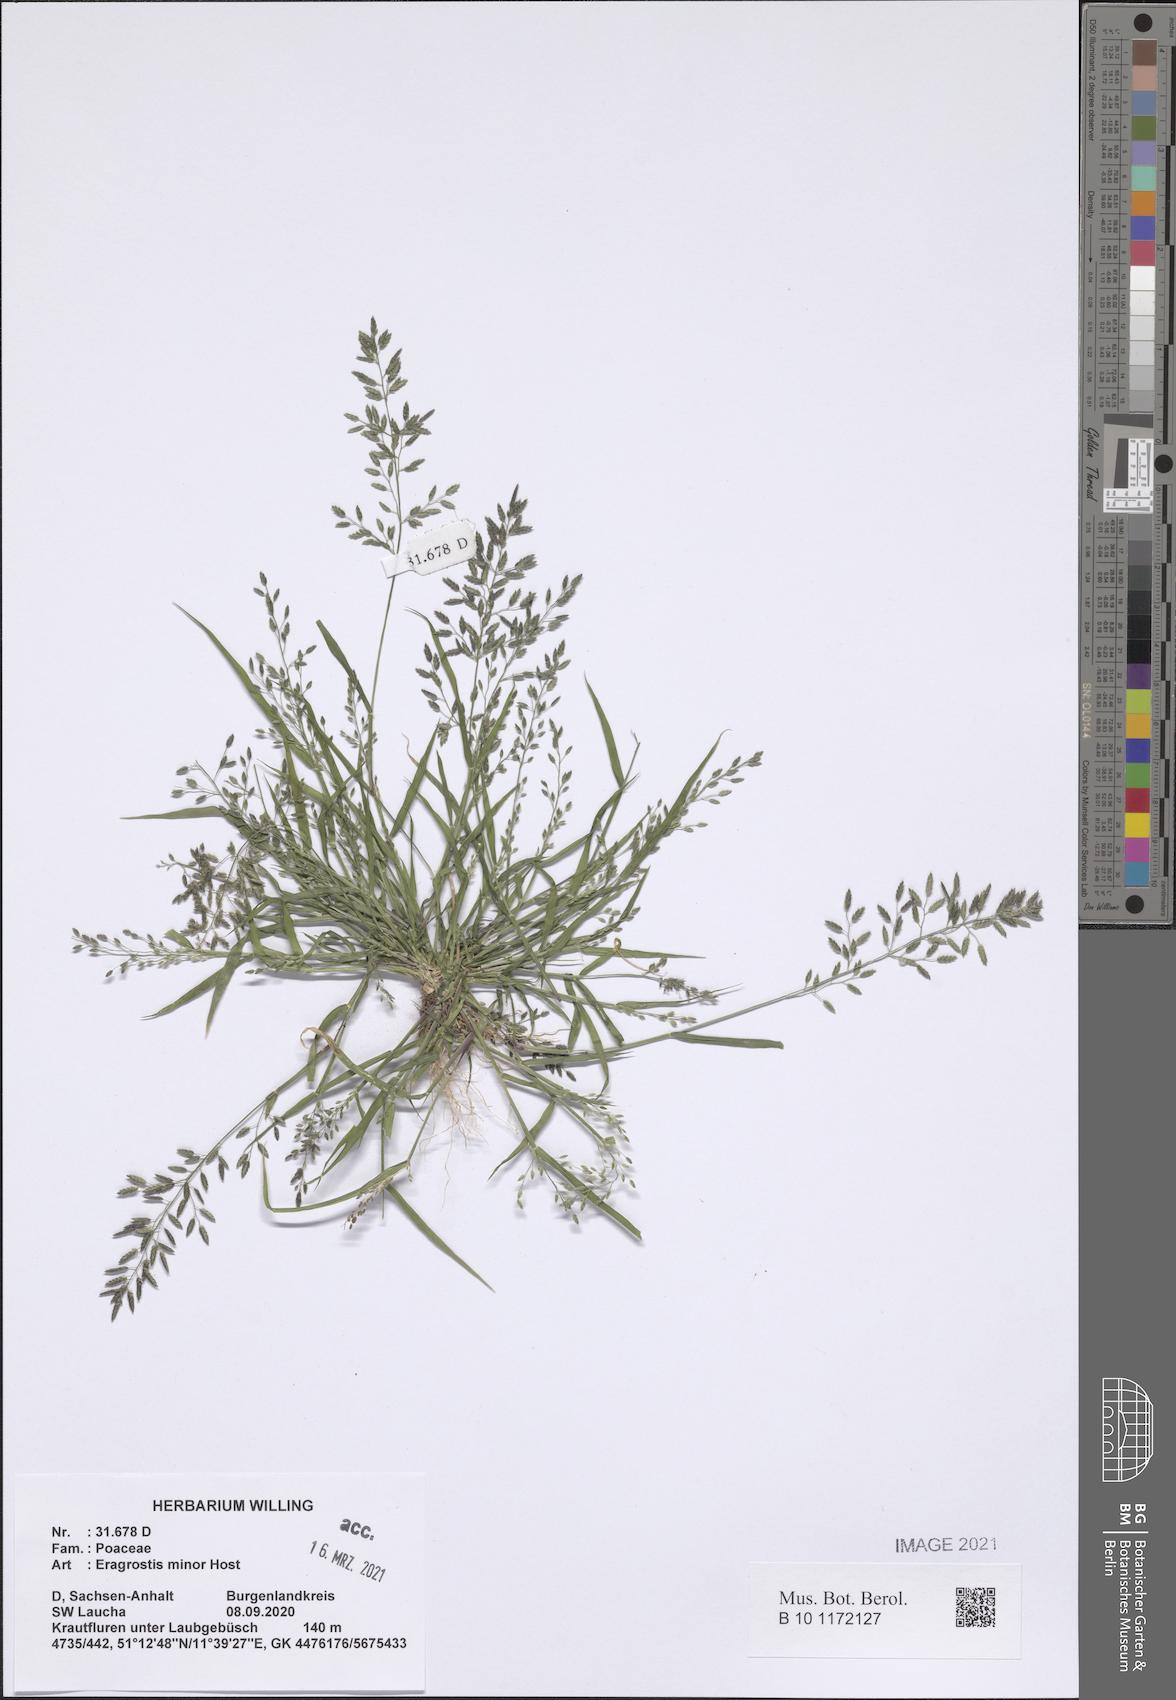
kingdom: Plantae
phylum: Tracheophyta
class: Liliopsida
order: Poales
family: Poaceae
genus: Eragrostis
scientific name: Eragrostis minor
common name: Small love-grass
